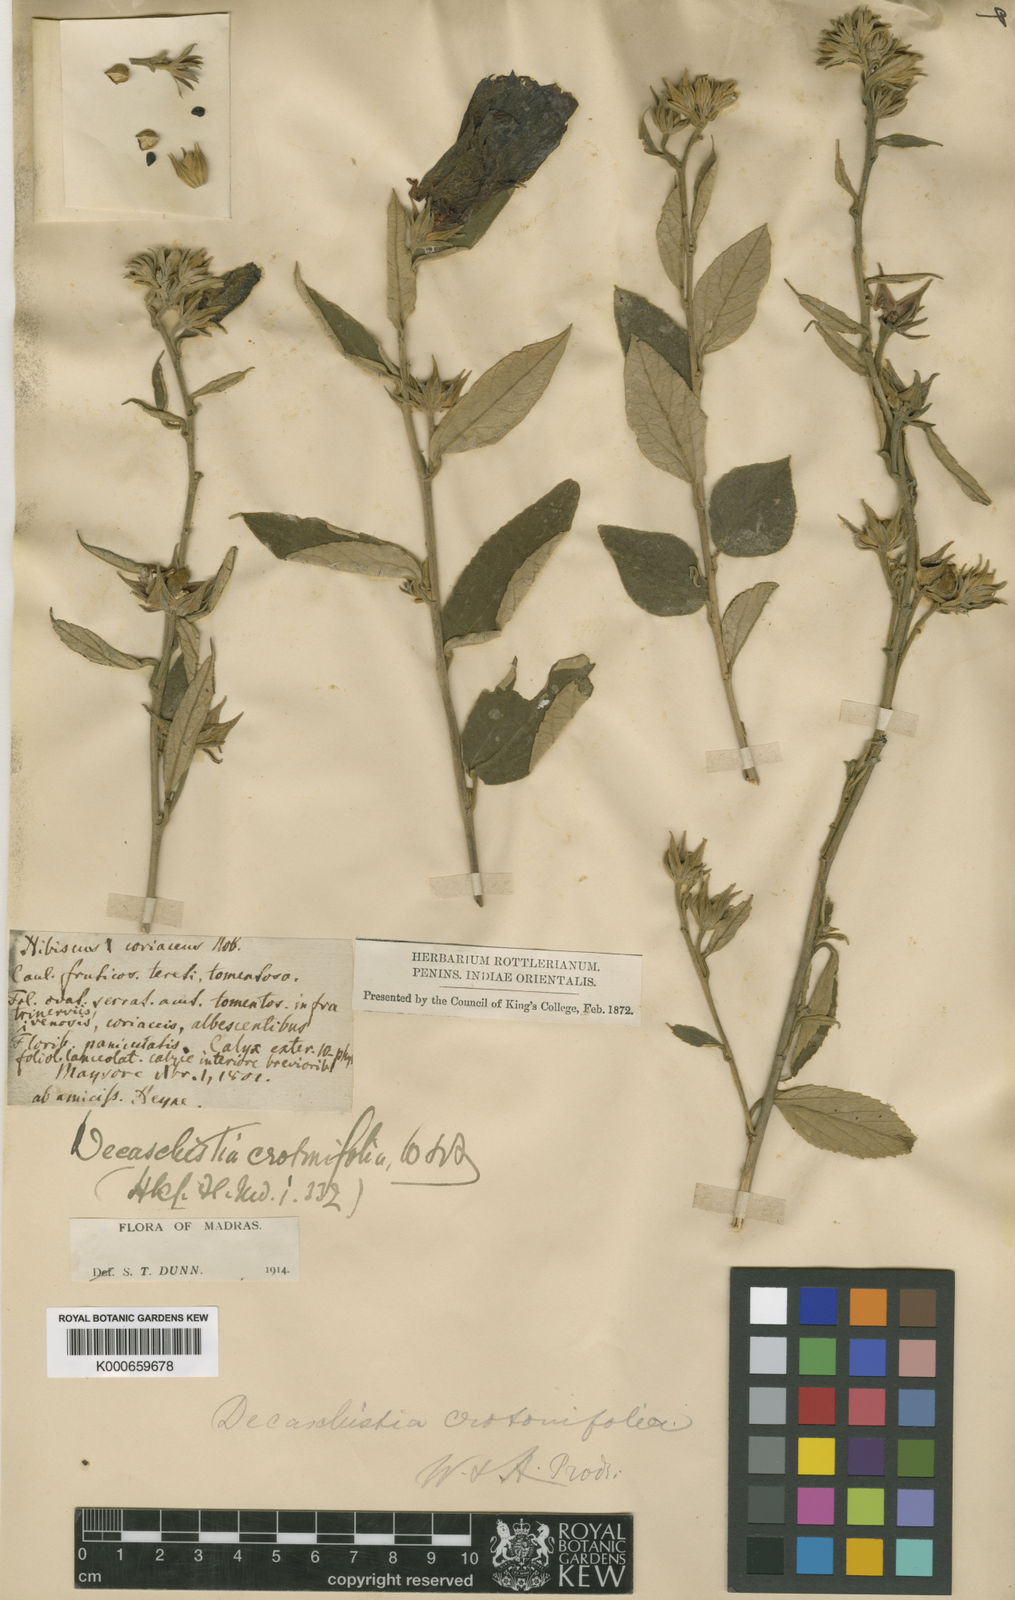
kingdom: Plantae
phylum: Tracheophyta
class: Magnoliopsida
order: Malvales
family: Malvaceae
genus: Decaschistia
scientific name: Decaschistia crotonifolia
